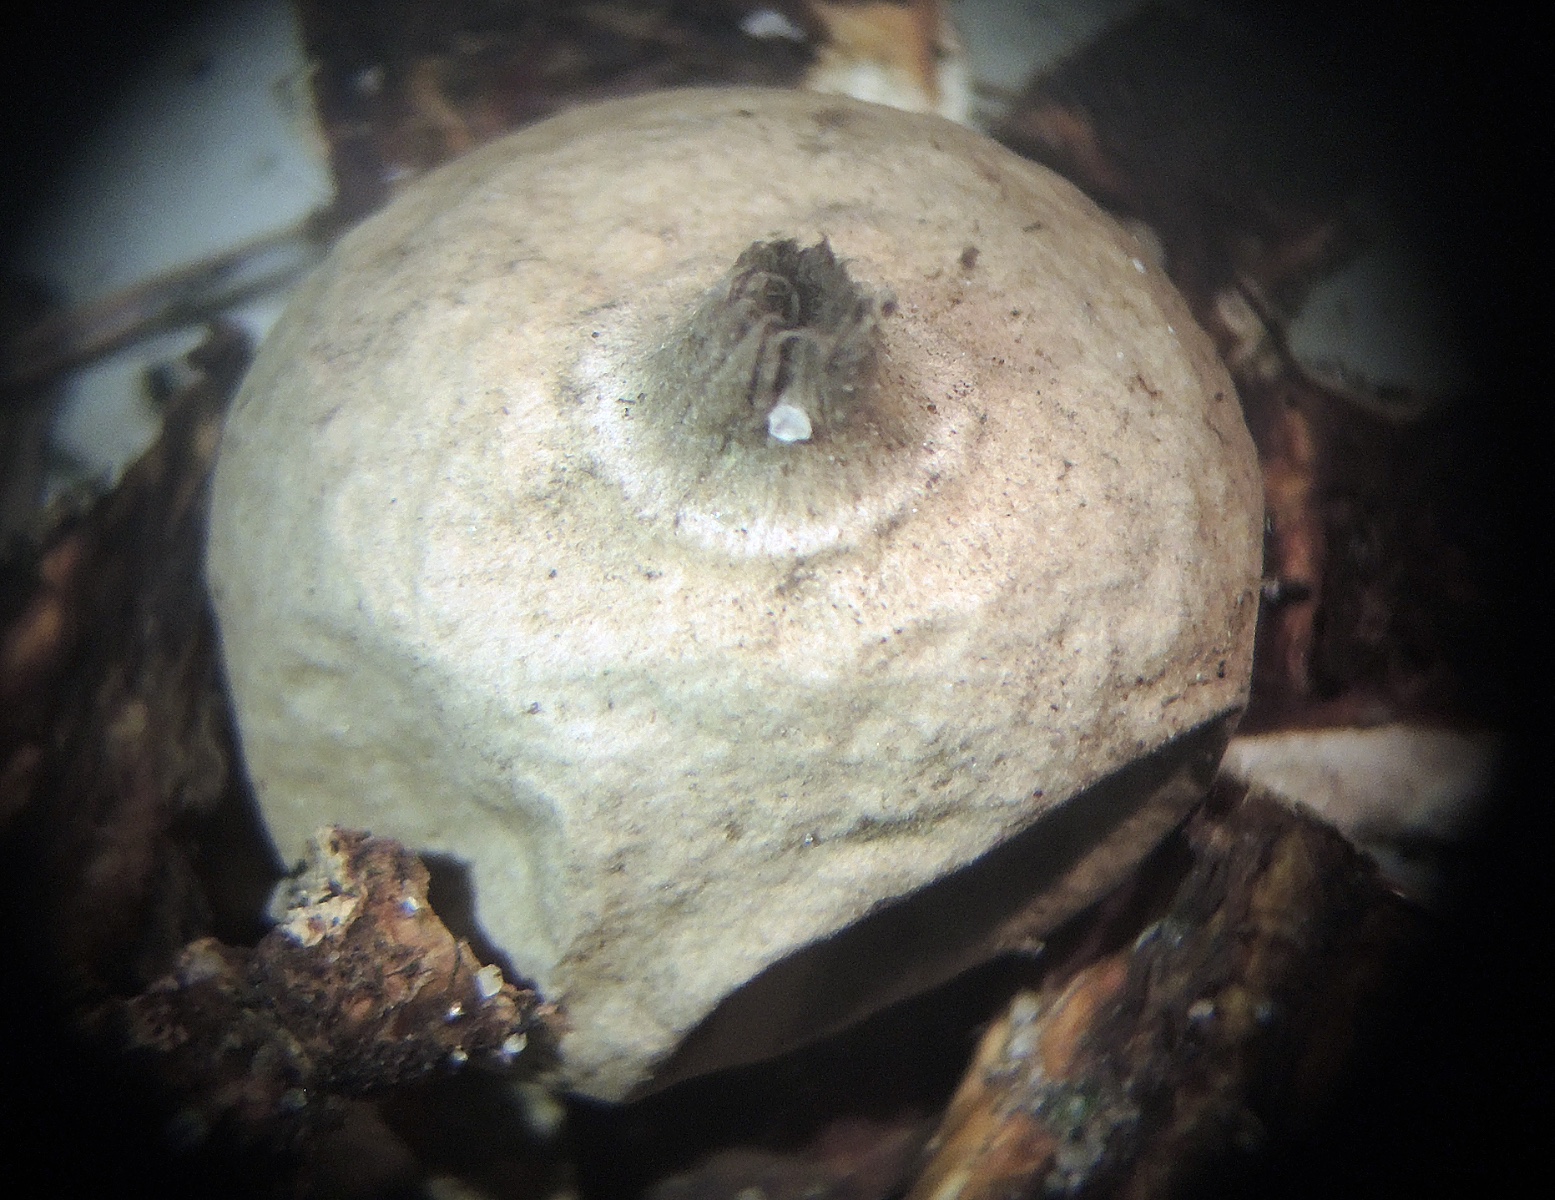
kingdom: Fungi
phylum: Basidiomycota
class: Agaricomycetes
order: Geastrales
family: Geastraceae
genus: Geastrum
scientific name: Geastrum saccatum
